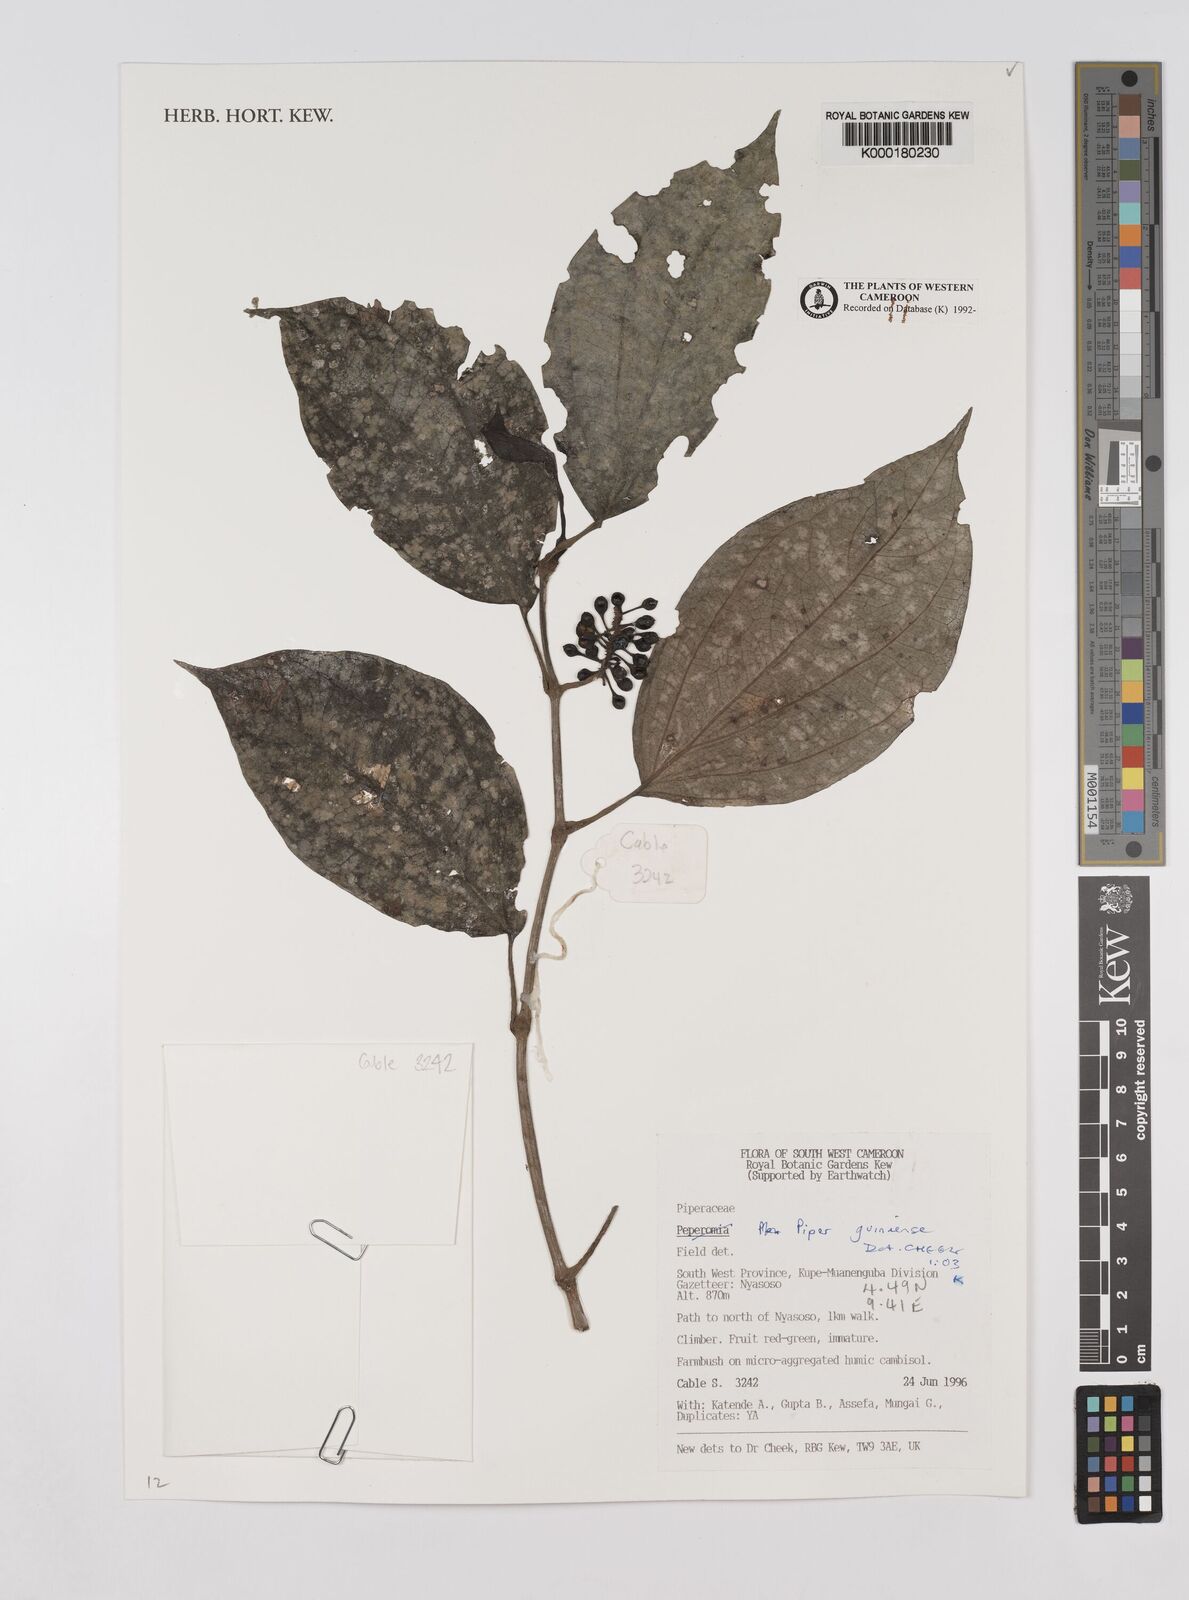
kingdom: Plantae
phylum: Tracheophyta
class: Magnoliopsida
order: Piperales
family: Piperaceae
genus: Piper
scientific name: Piper guineense
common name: Benin pepper
